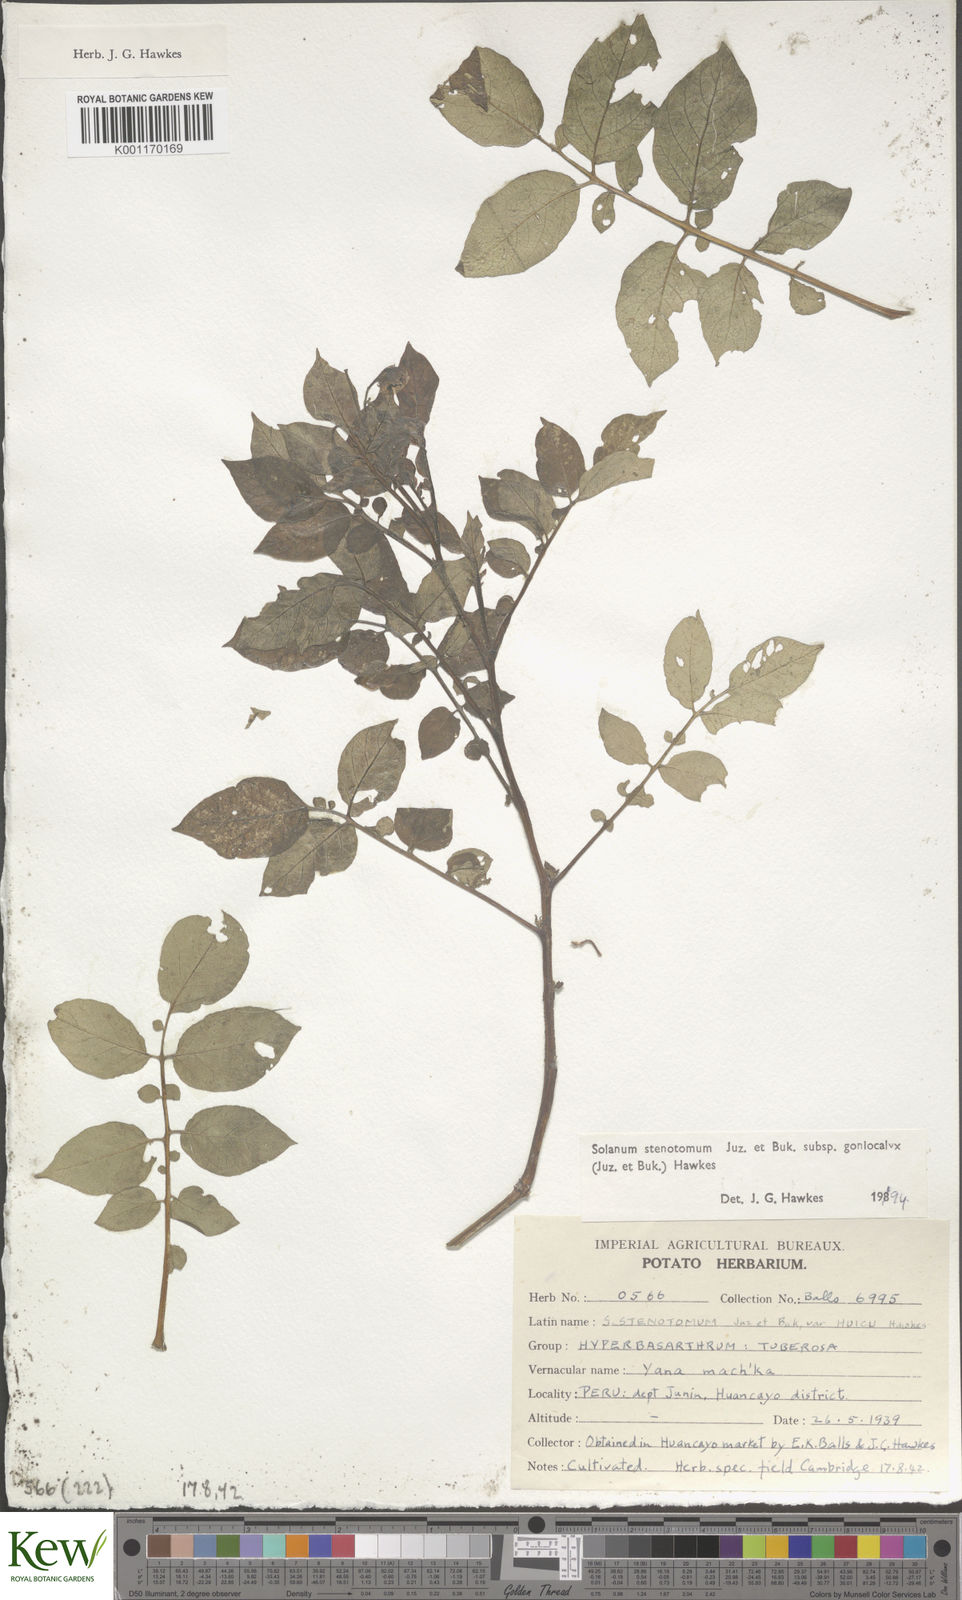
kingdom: Plantae
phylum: Tracheophyta
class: Magnoliopsida
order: Solanales
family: Solanaceae
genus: Solanum
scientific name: Solanum tuberosum
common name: Potato
